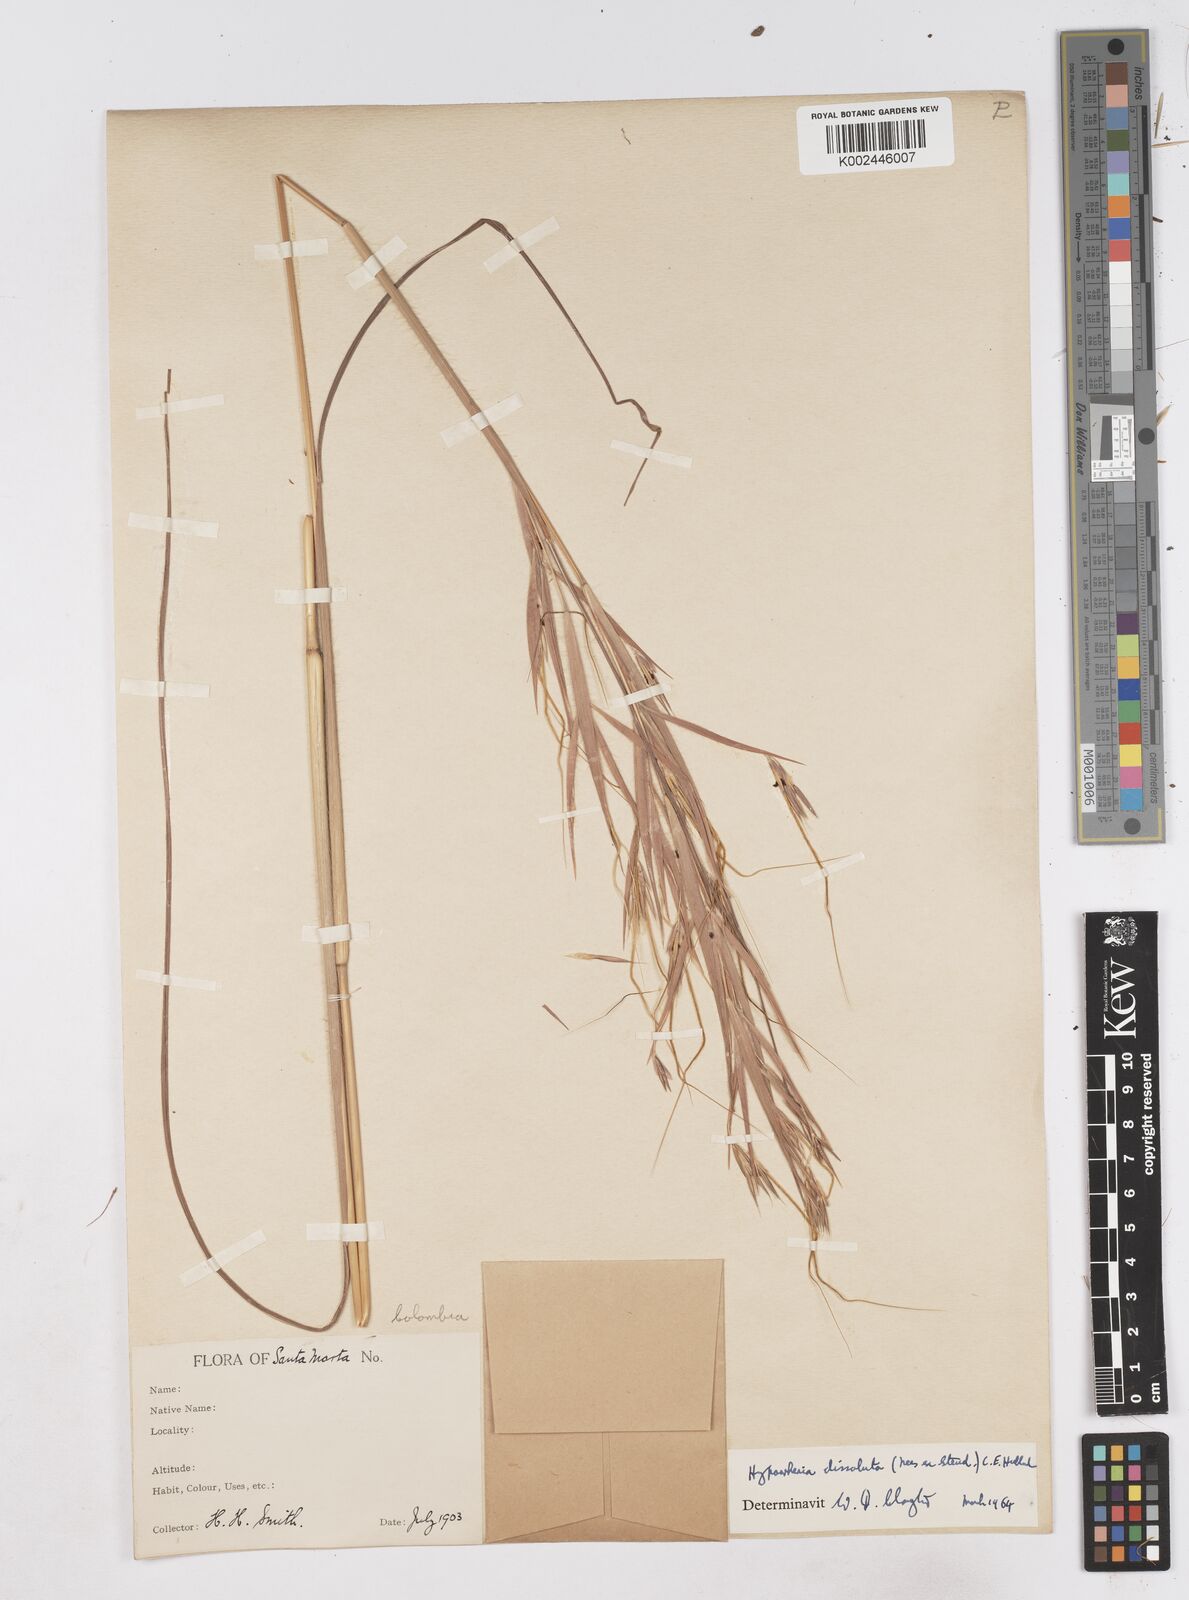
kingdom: Plantae
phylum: Tracheophyta
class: Liliopsida
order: Poales
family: Poaceae
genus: Hyperthelia
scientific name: Hyperthelia dissoluta
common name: Yellow thatching grass
